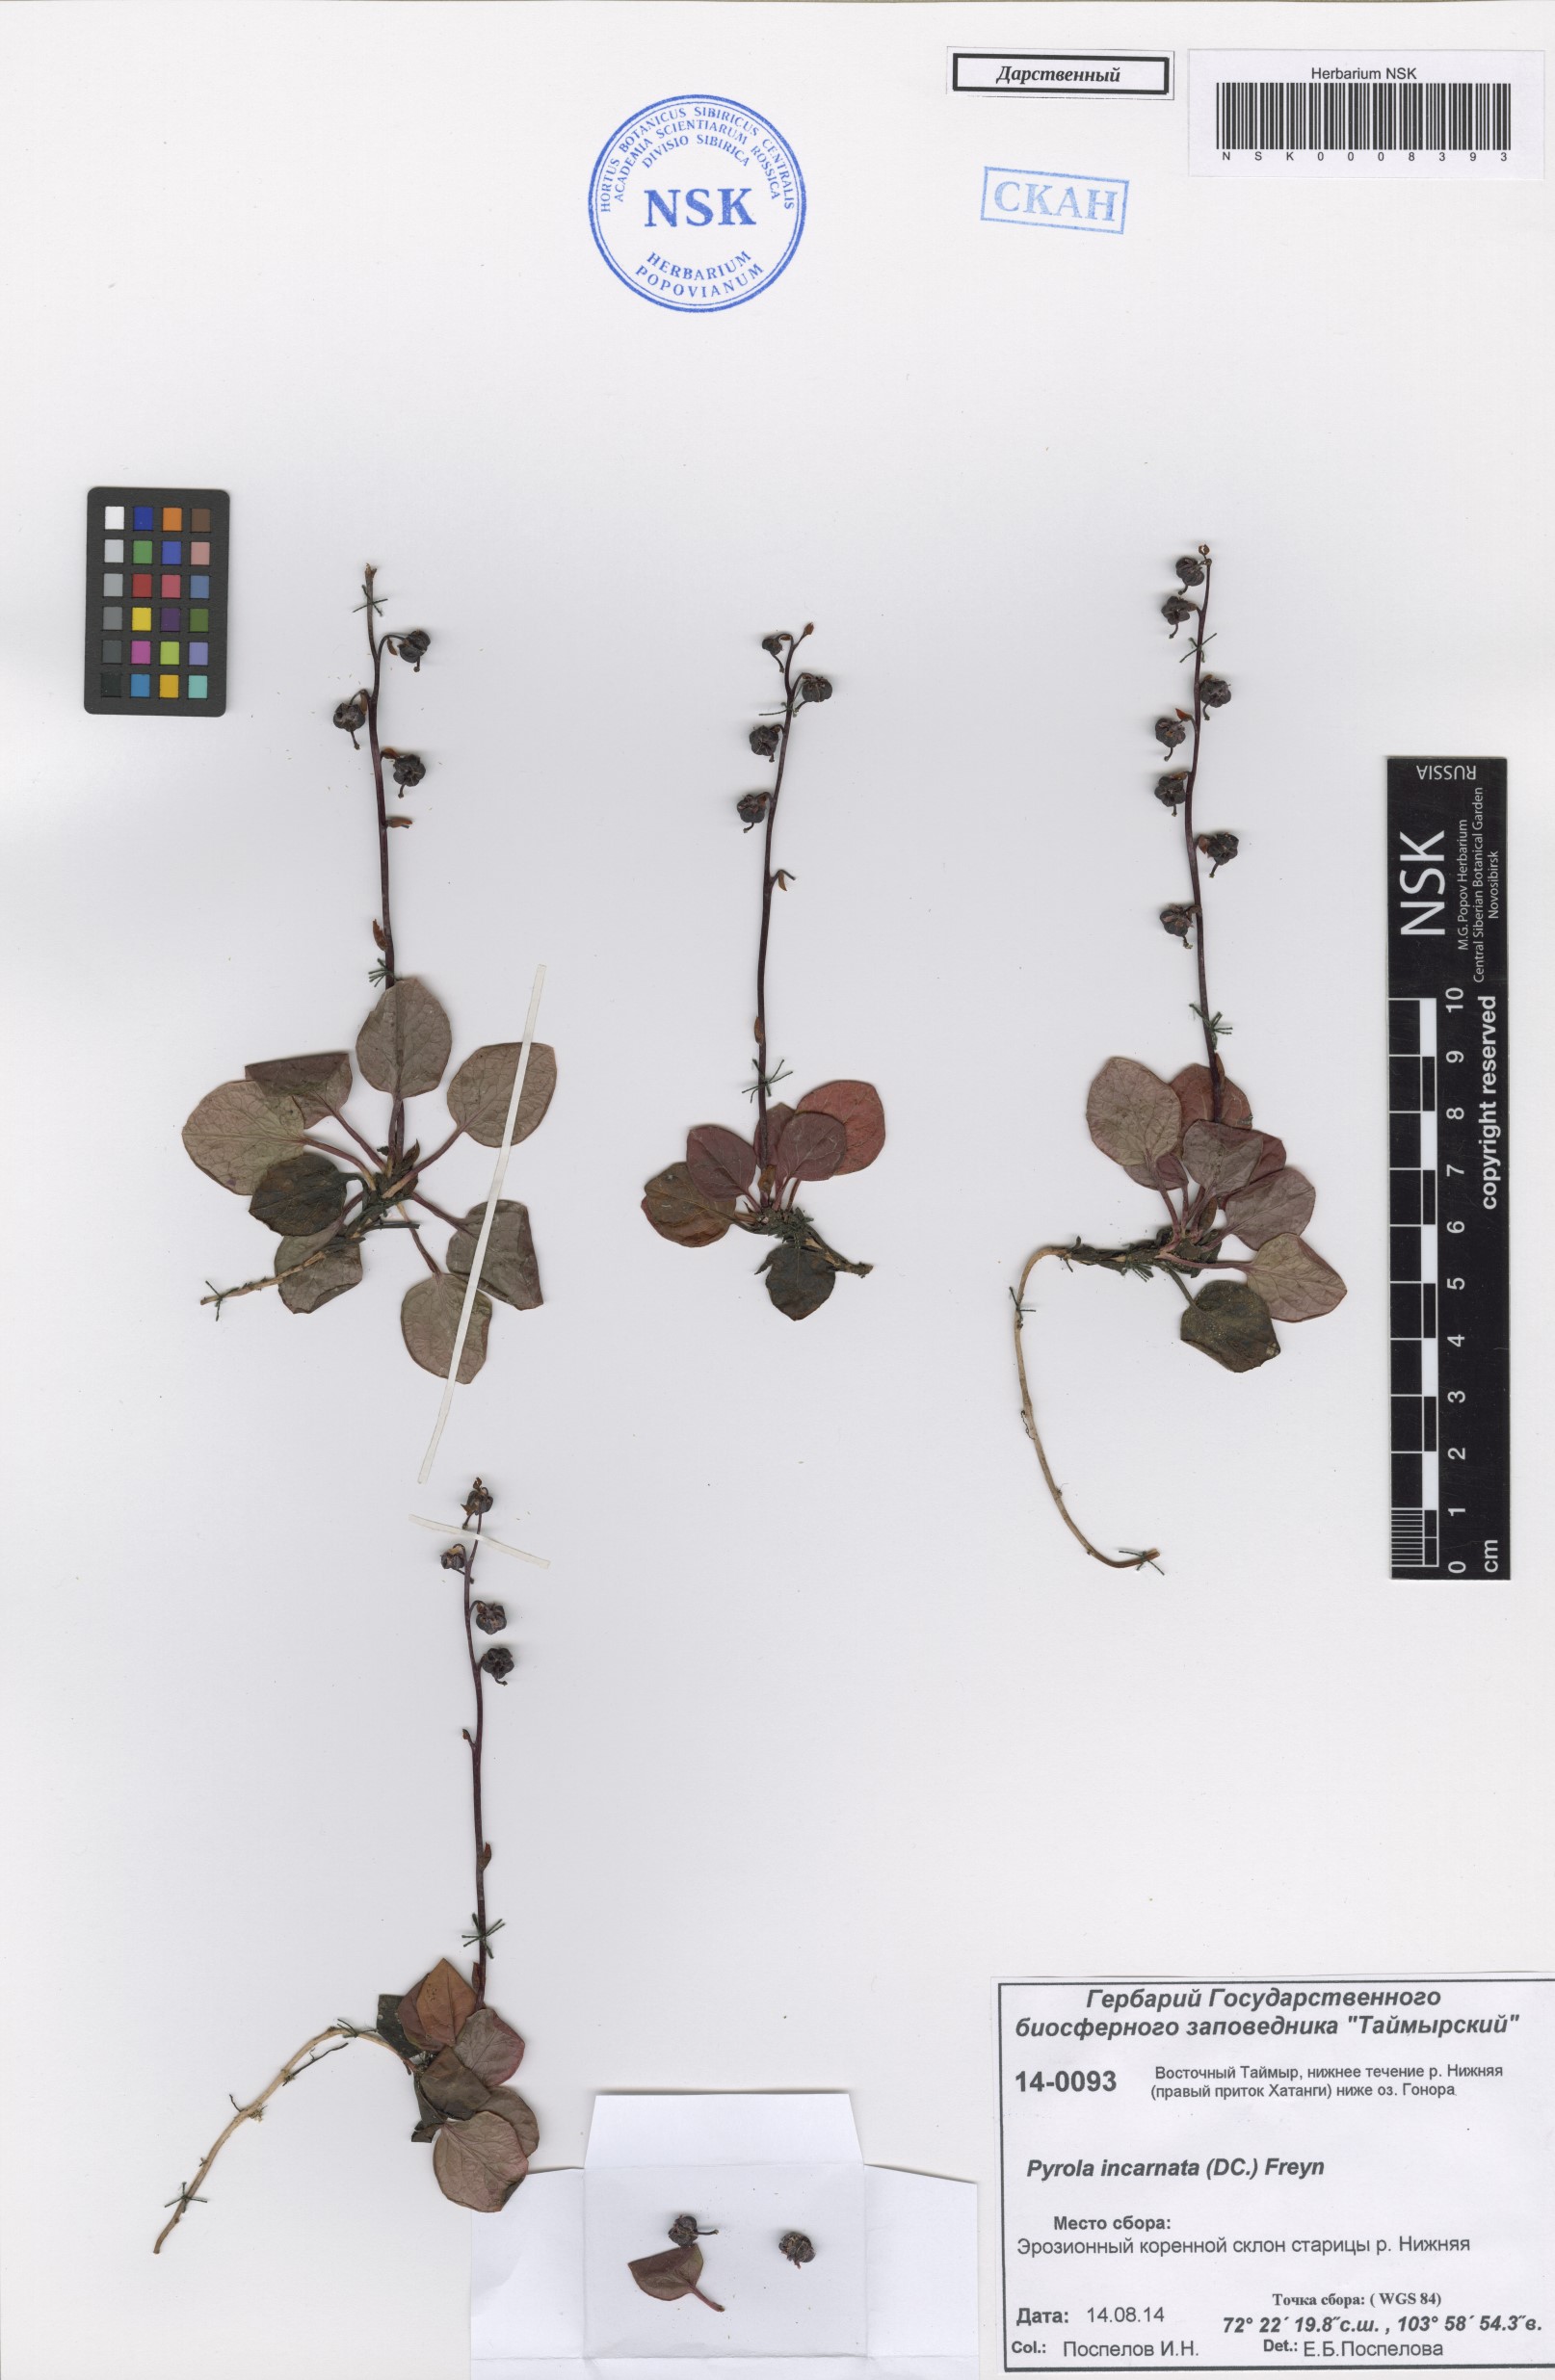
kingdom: Plantae
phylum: Tracheophyta
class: Magnoliopsida
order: Ericales
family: Ericaceae
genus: Pyrola
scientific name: Pyrola asarifolia
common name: Bog wintergreen
